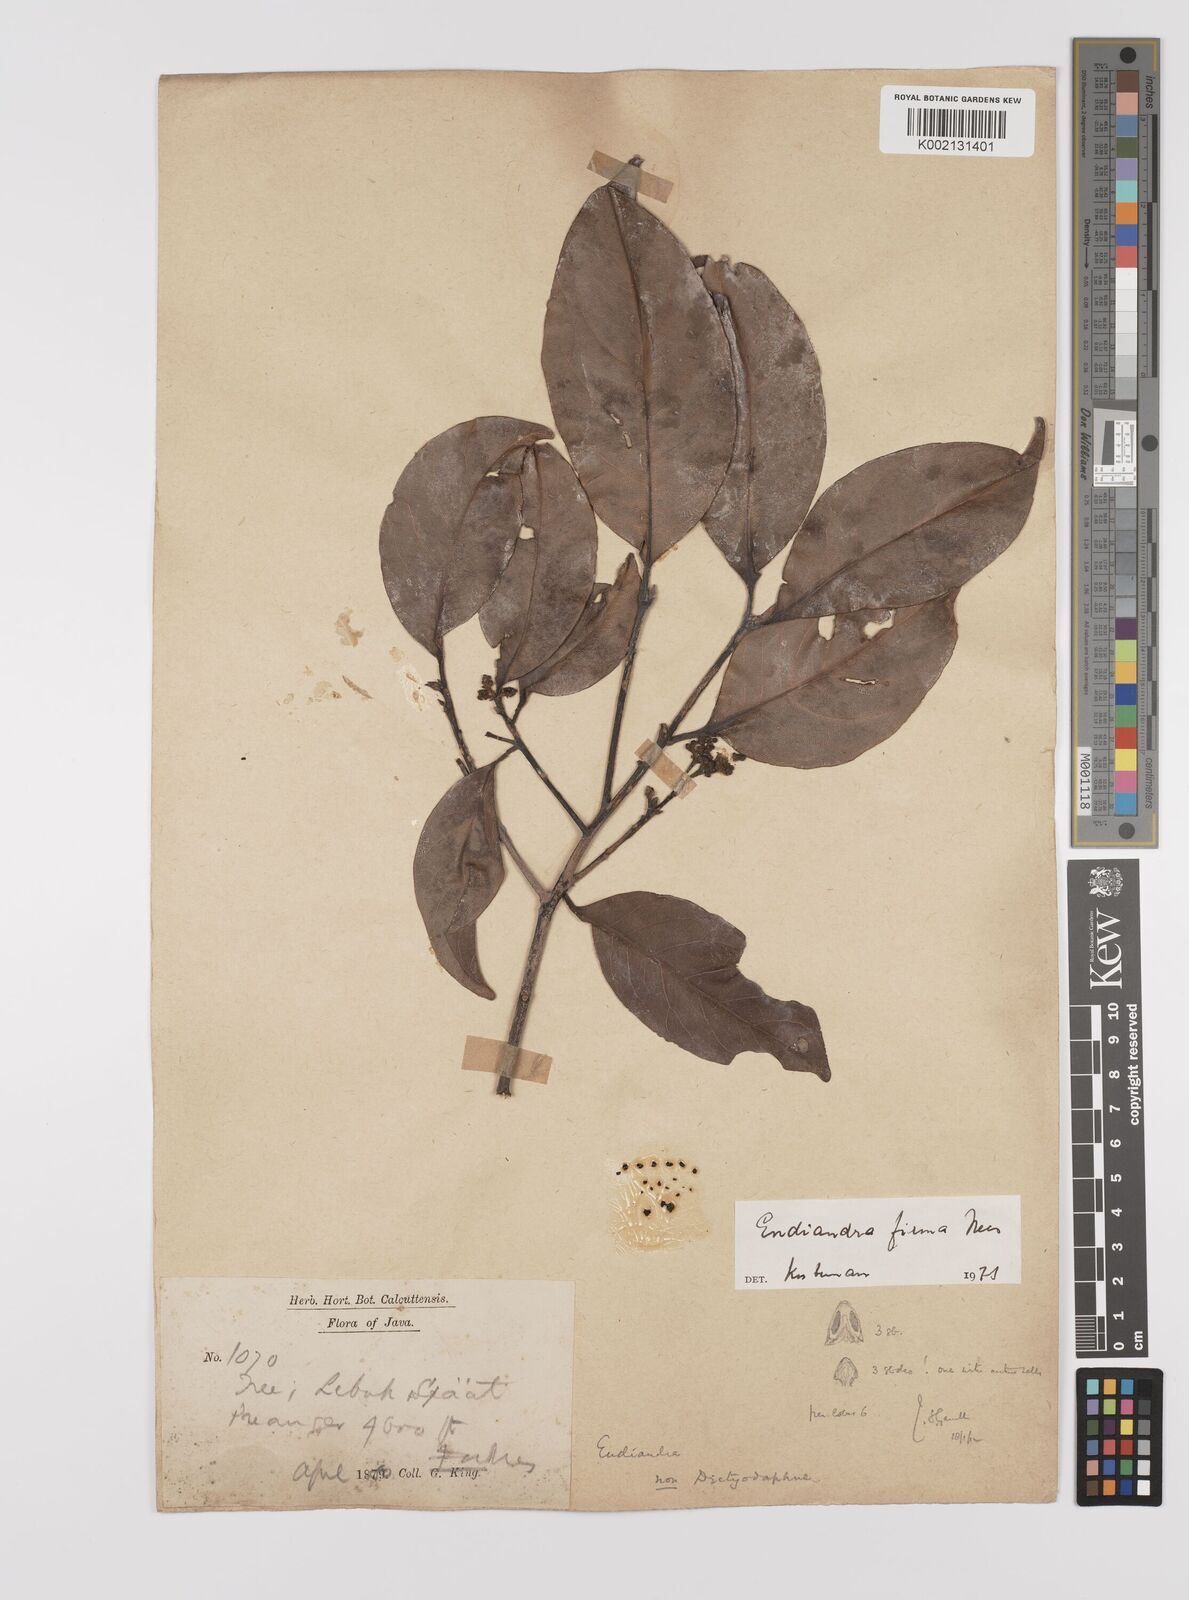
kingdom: Plantae
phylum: Tracheophyta
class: Magnoliopsida
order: Laurales
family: Lauraceae
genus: Endiandra
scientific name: Endiandra firma
